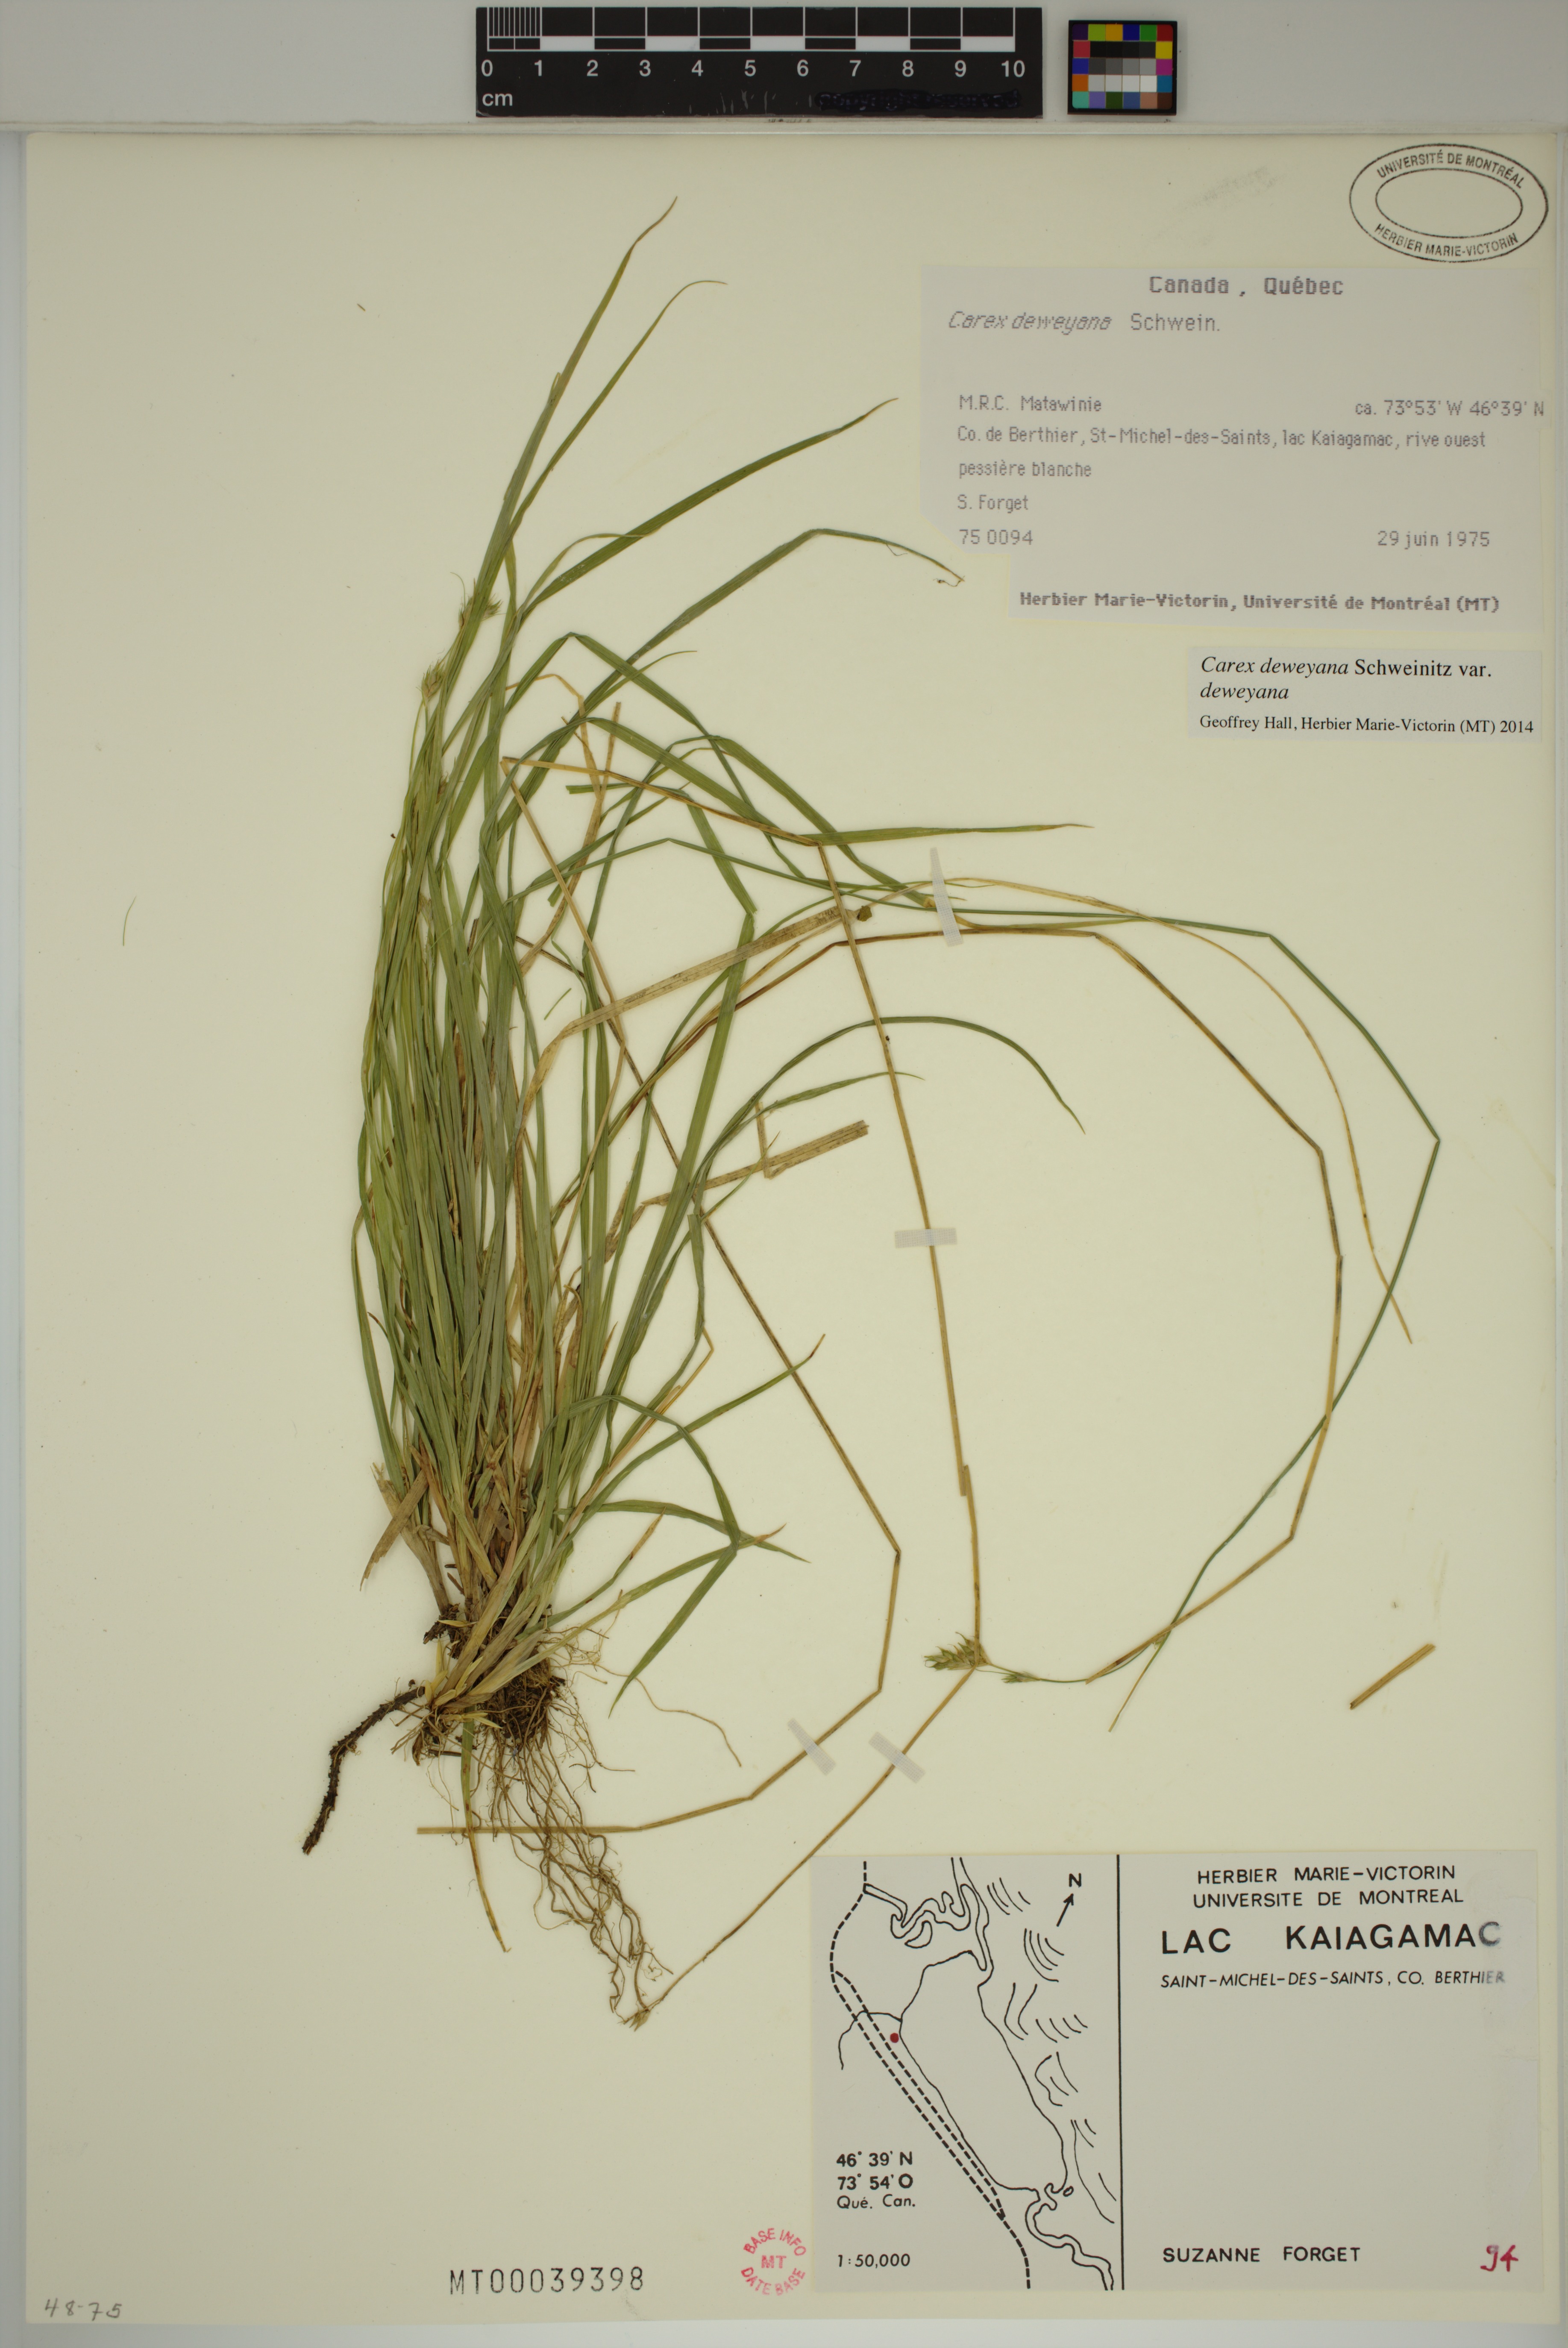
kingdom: Plantae
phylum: Tracheophyta
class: Liliopsida
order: Poales
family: Cyperaceae
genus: Carex
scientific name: Carex deweyana
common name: Dewey's sedge
